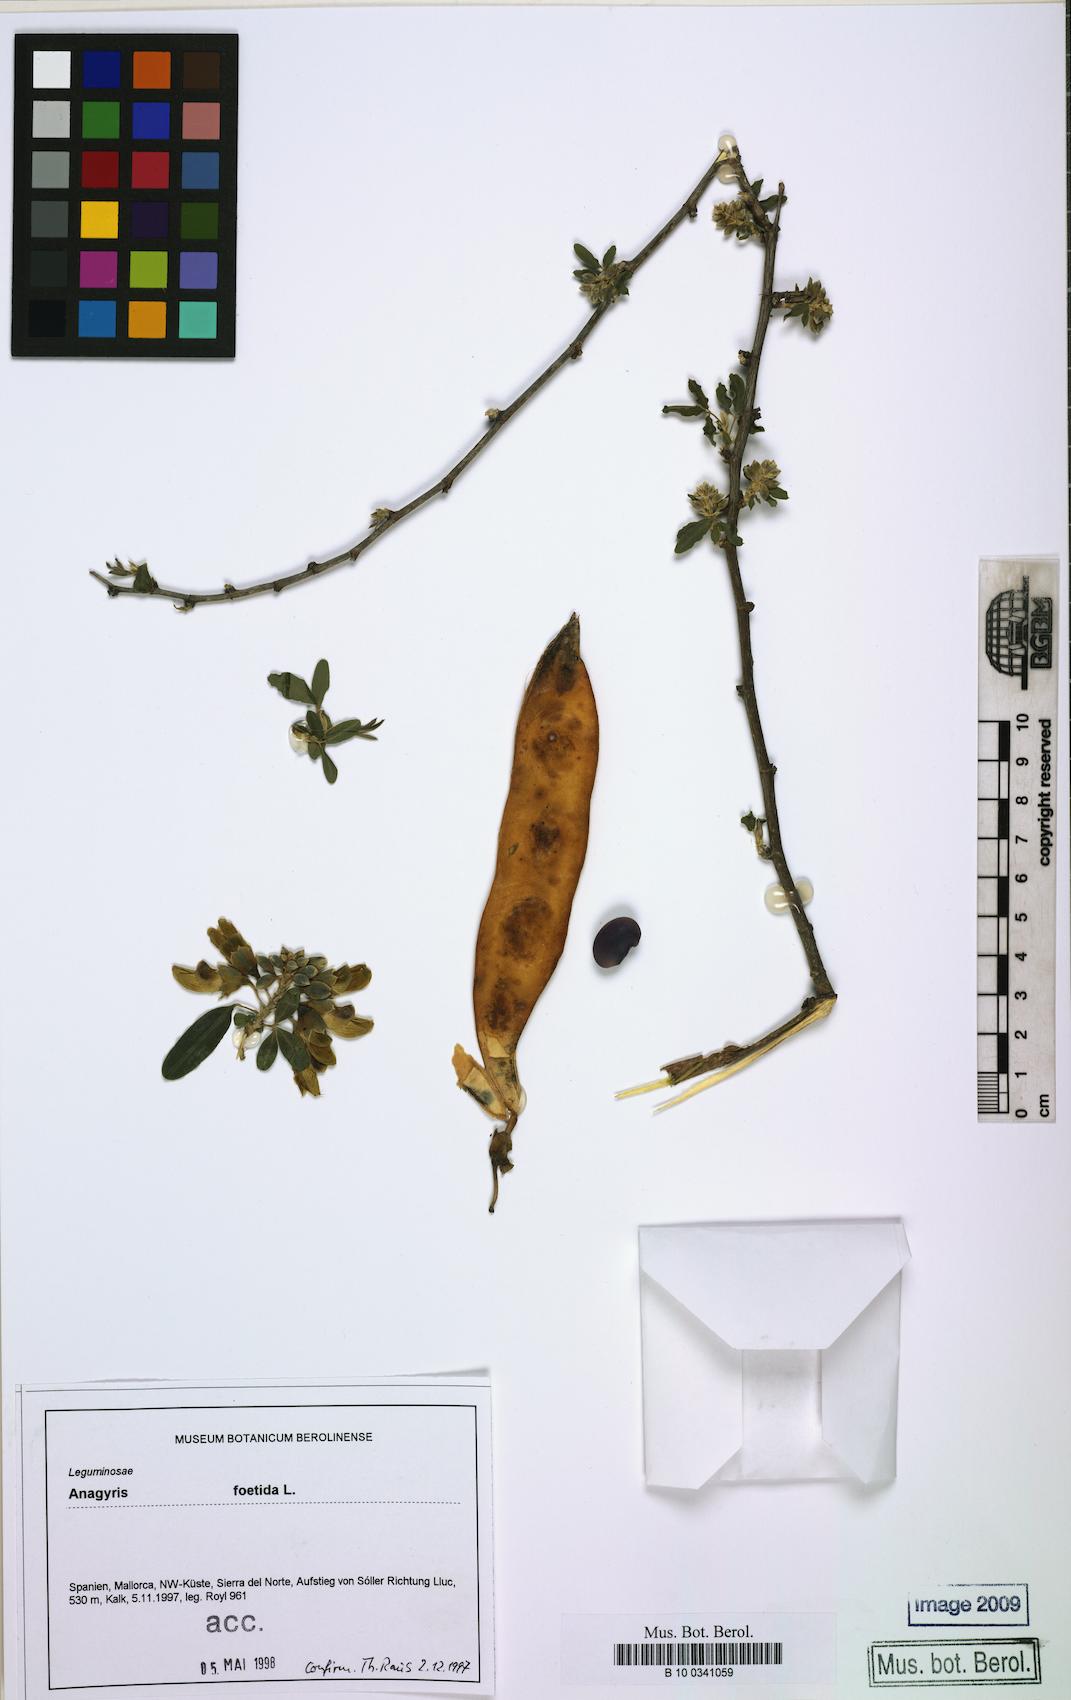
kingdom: Plantae
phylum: Tracheophyta
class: Magnoliopsida
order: Fabales
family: Fabaceae
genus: Anagyris
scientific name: Anagyris foetida
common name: Stinking bean trefoil
